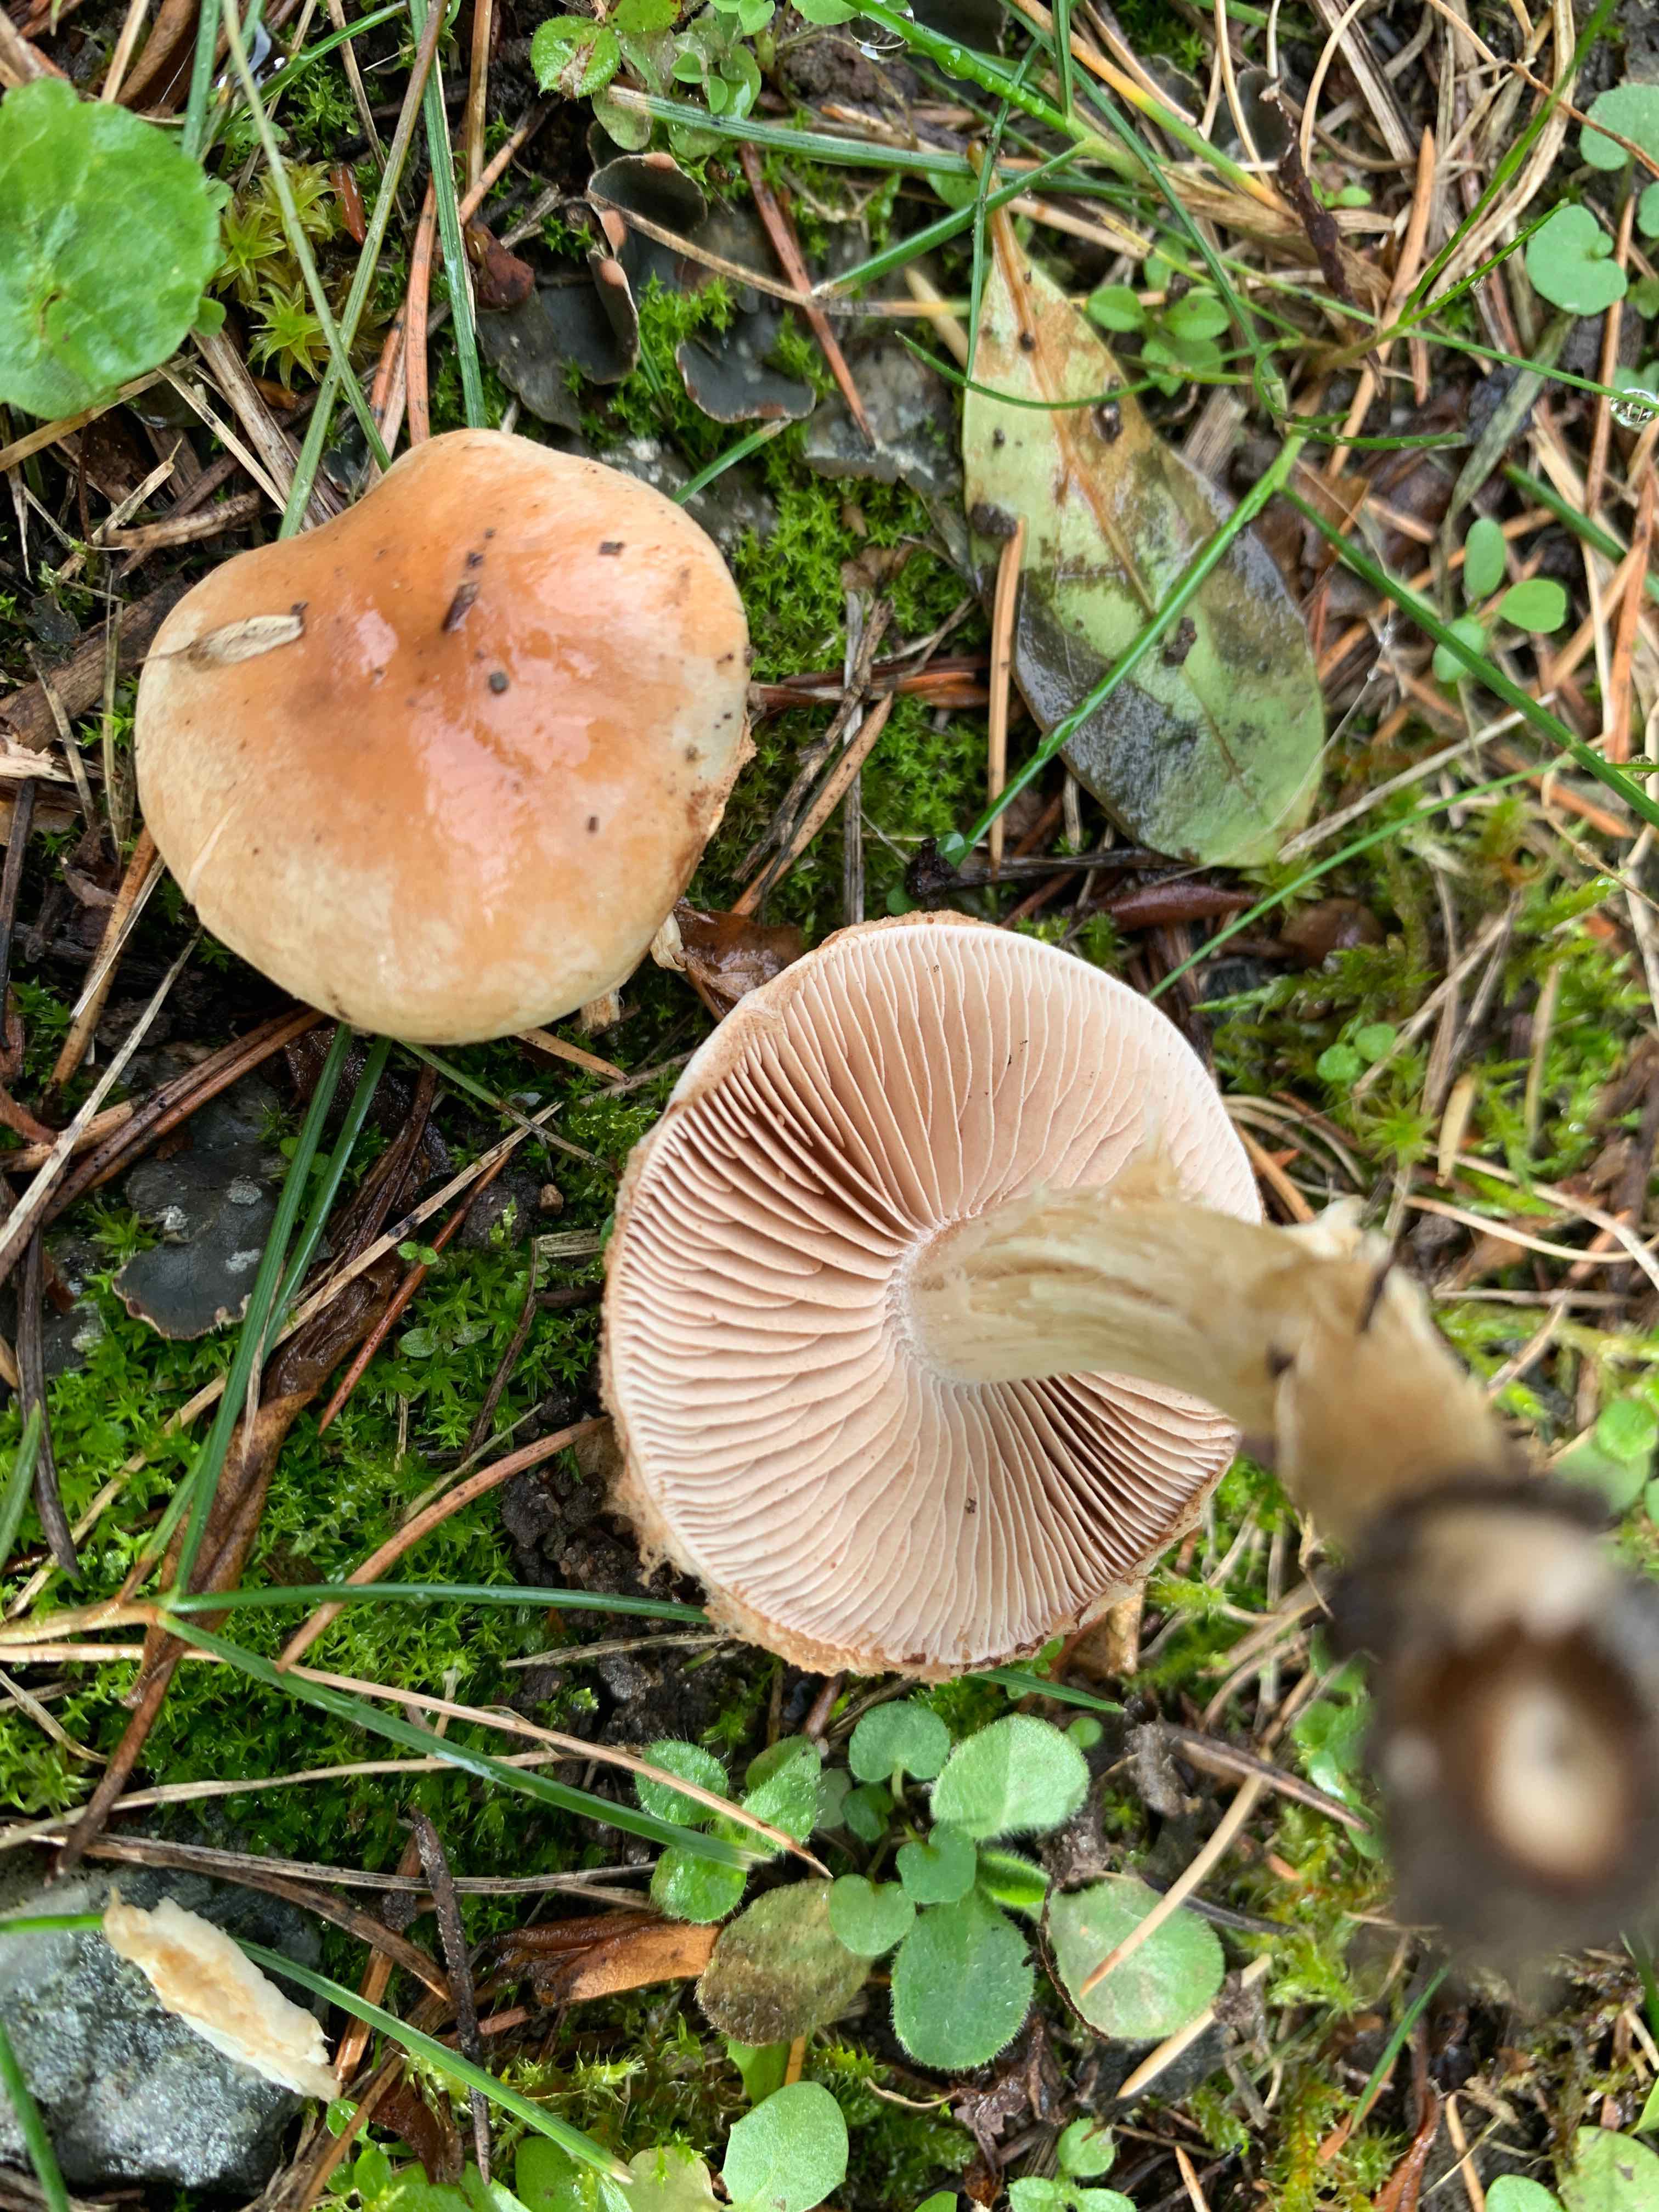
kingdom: Fungi
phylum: Basidiomycota
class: Agaricomycetes
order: Agaricales
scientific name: Agaricales
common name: champignonordenen
